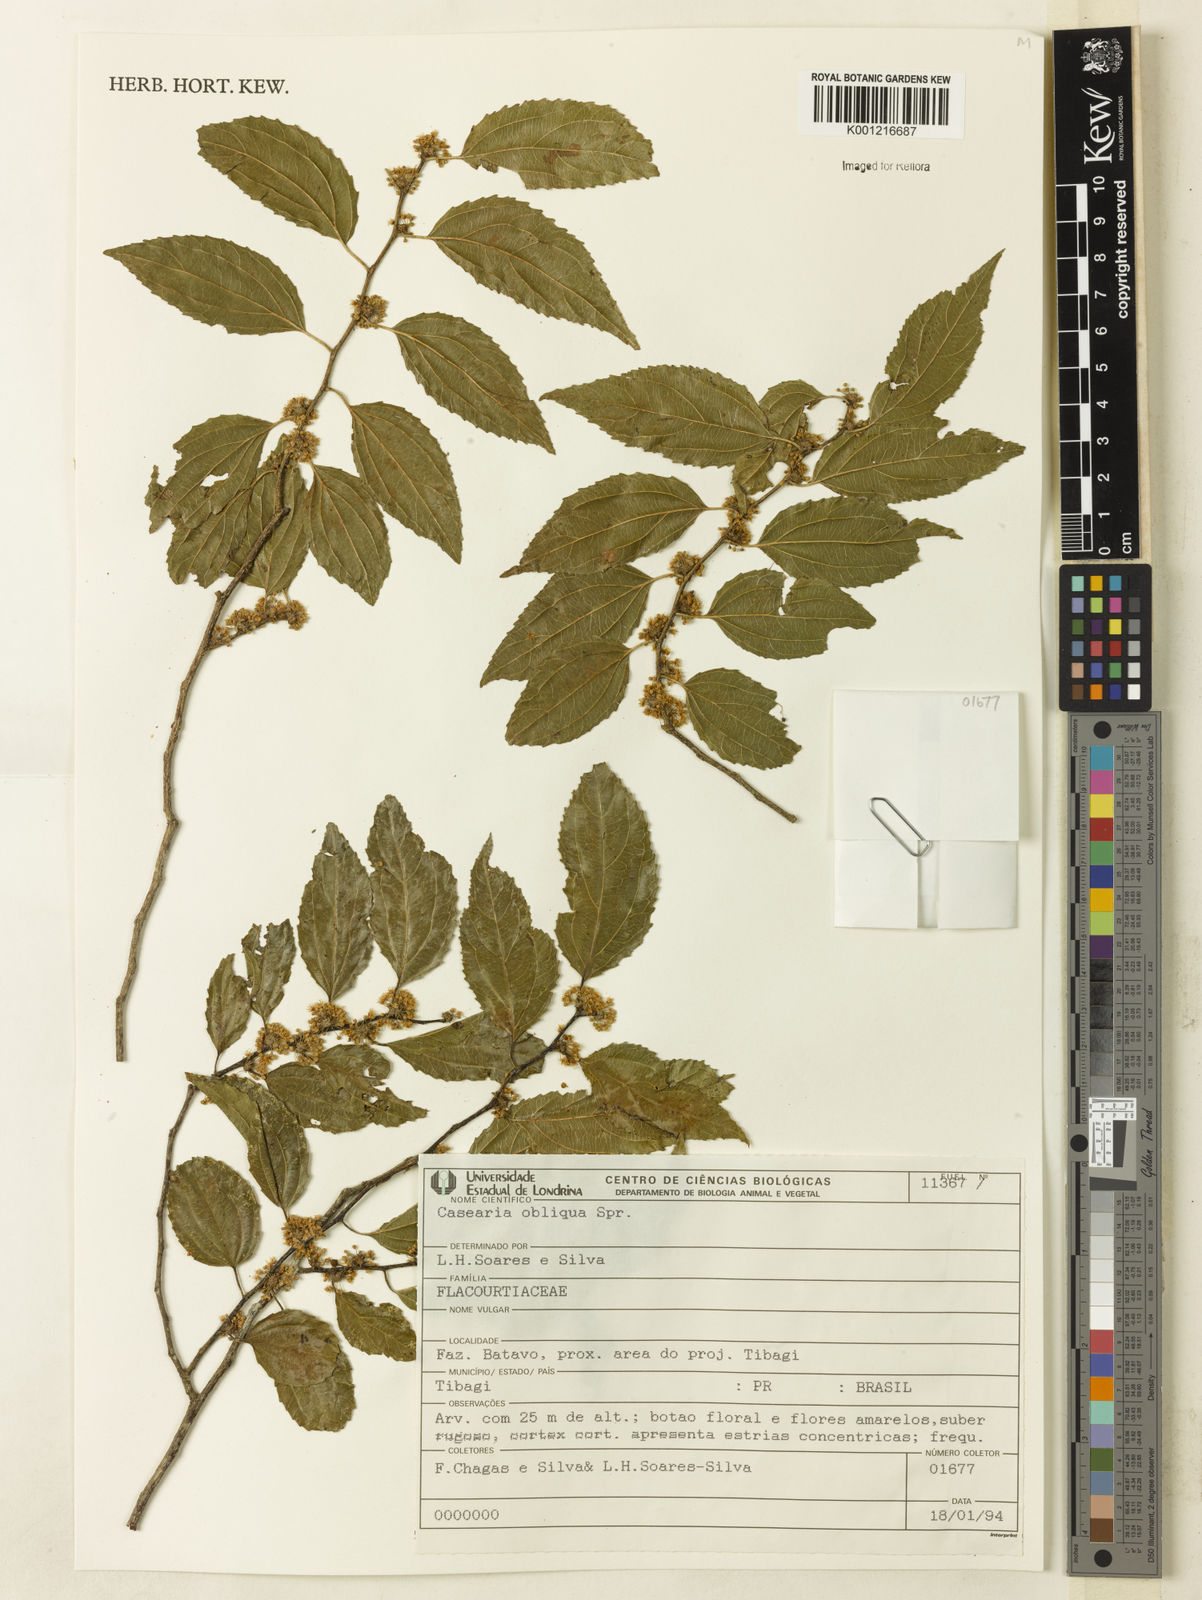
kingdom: Plantae
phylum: Tracheophyta
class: Magnoliopsida
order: Malpighiales
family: Salicaceae
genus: Casearia
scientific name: Casearia obliqua
